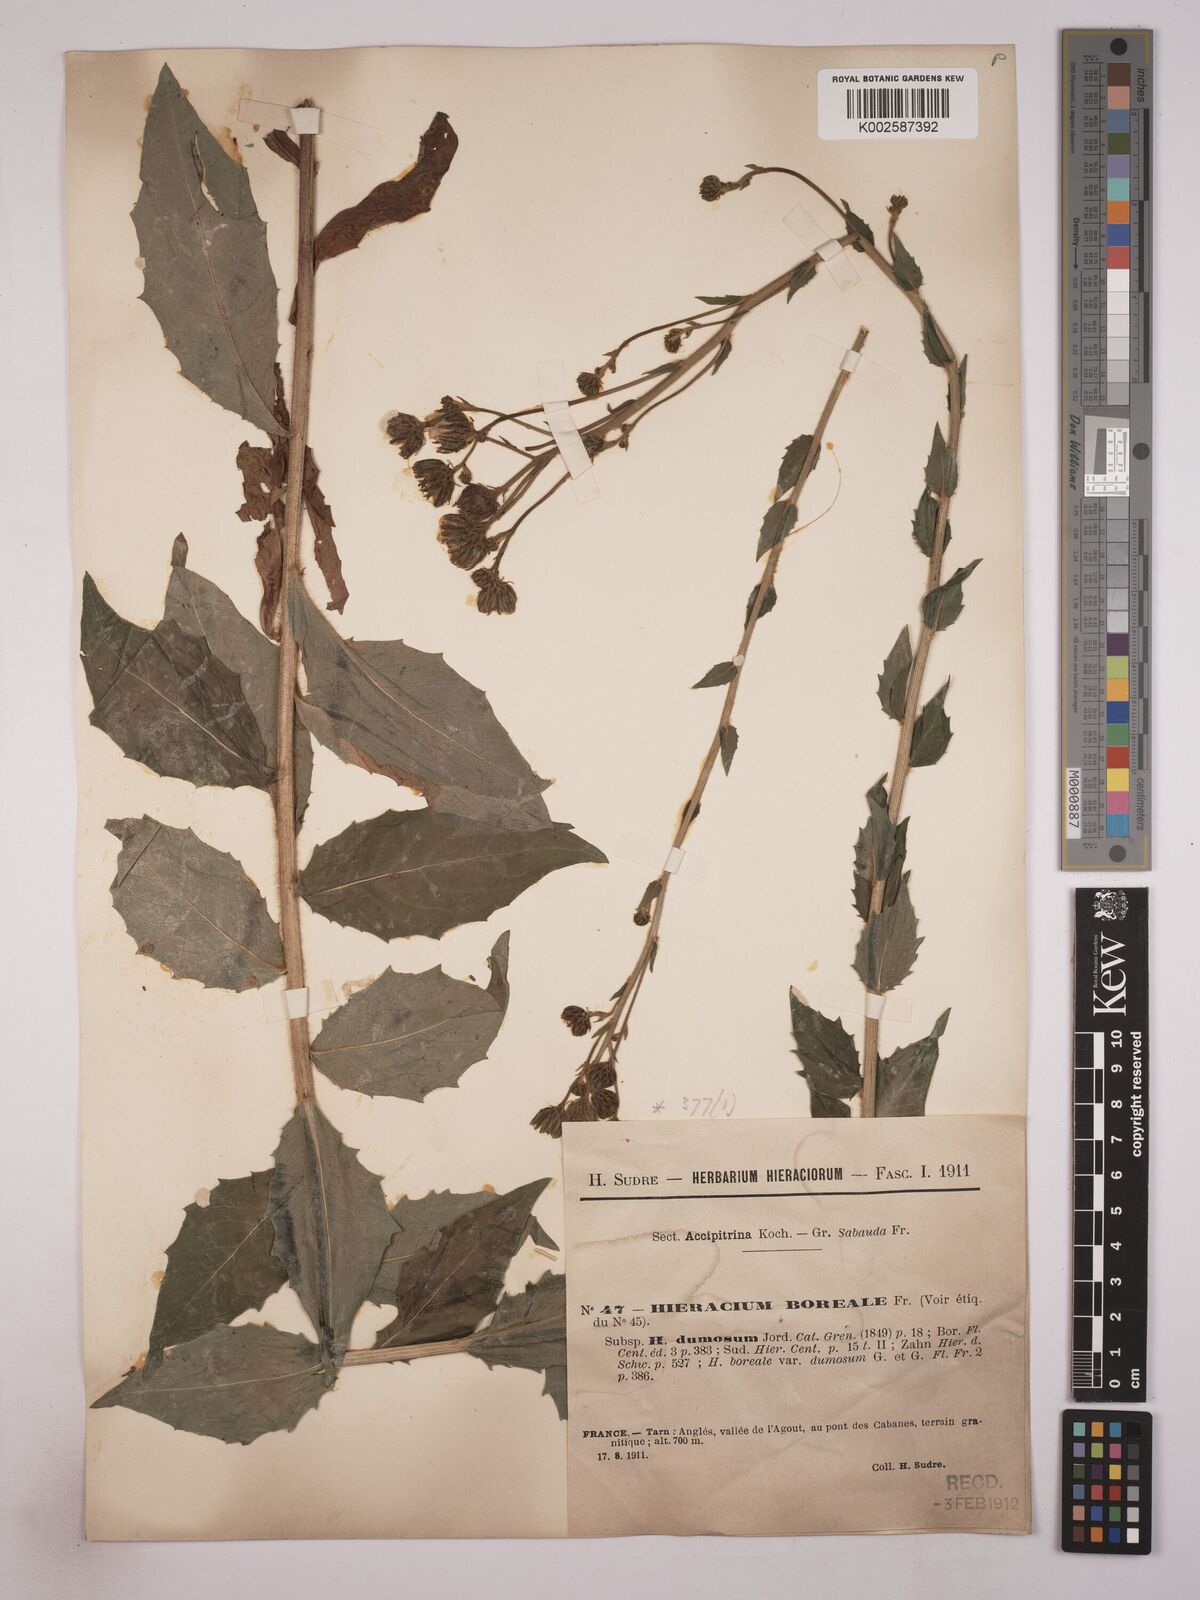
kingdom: Plantae
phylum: Tracheophyta
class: Magnoliopsida
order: Asterales
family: Asteraceae
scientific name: Asteraceae
